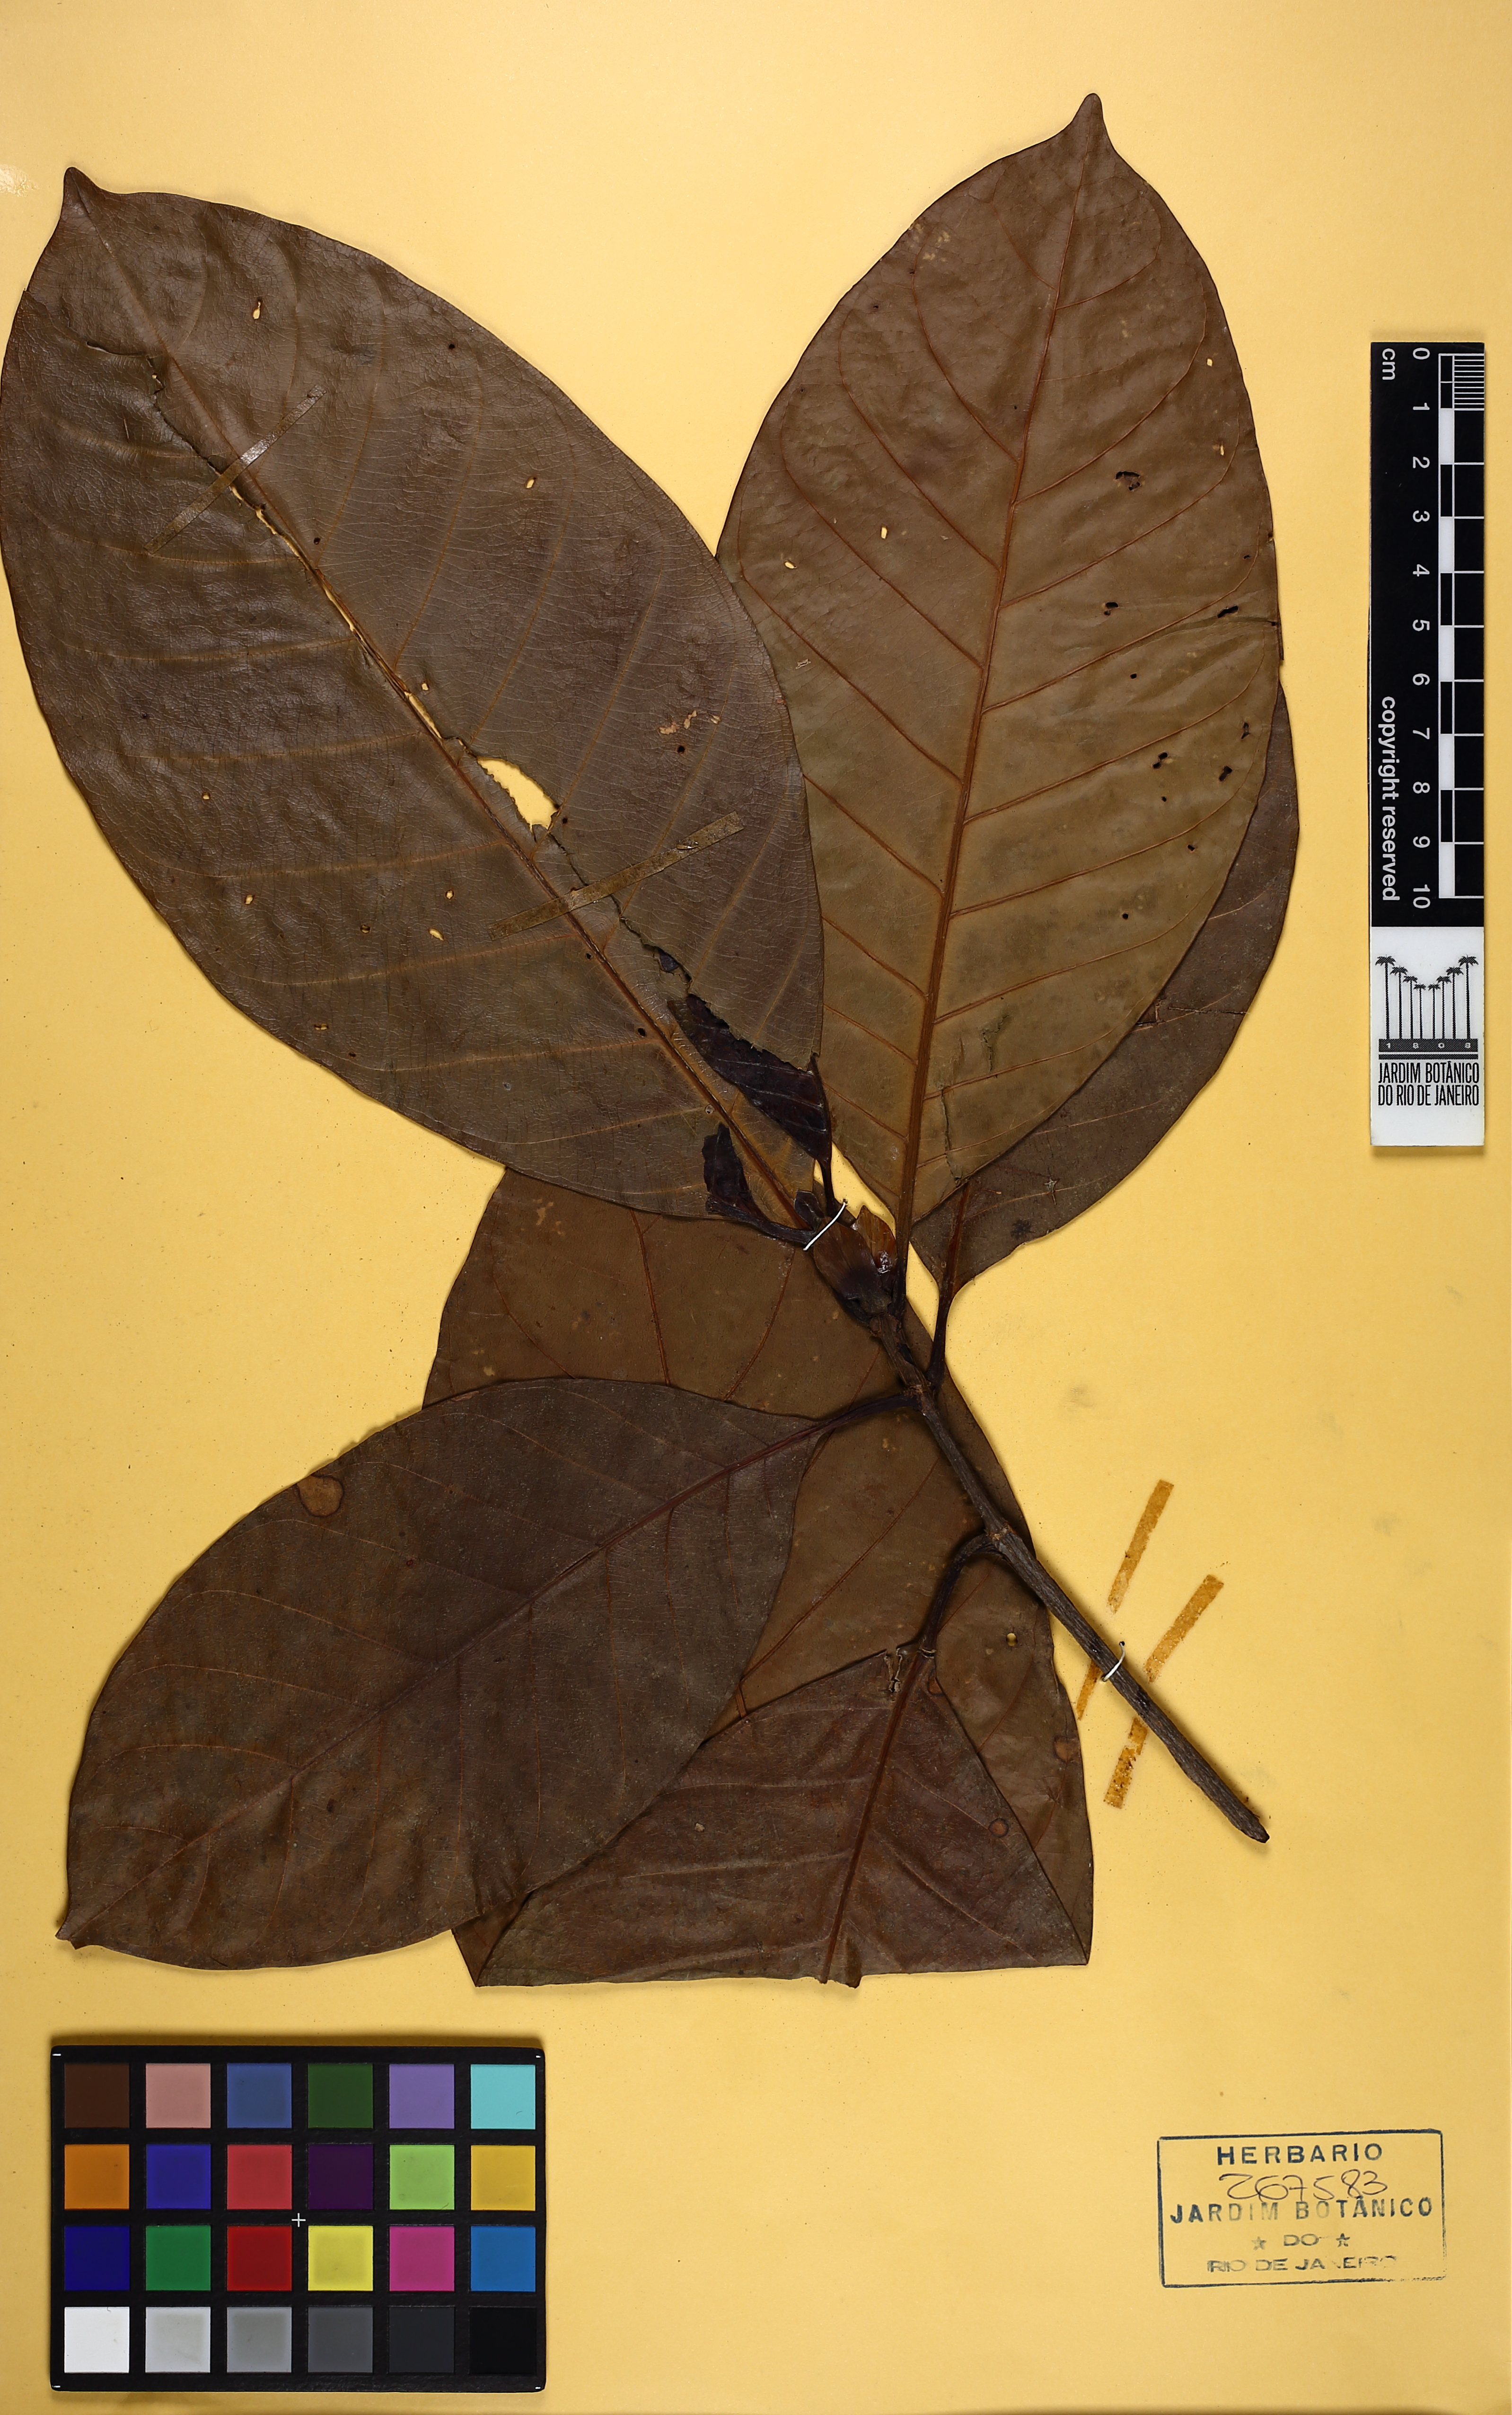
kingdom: Plantae
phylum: Tracheophyta
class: Magnoliopsida
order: Gentianales
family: Rubiaceae
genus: Ciliosemina
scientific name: Ciliosemina pedunculata
